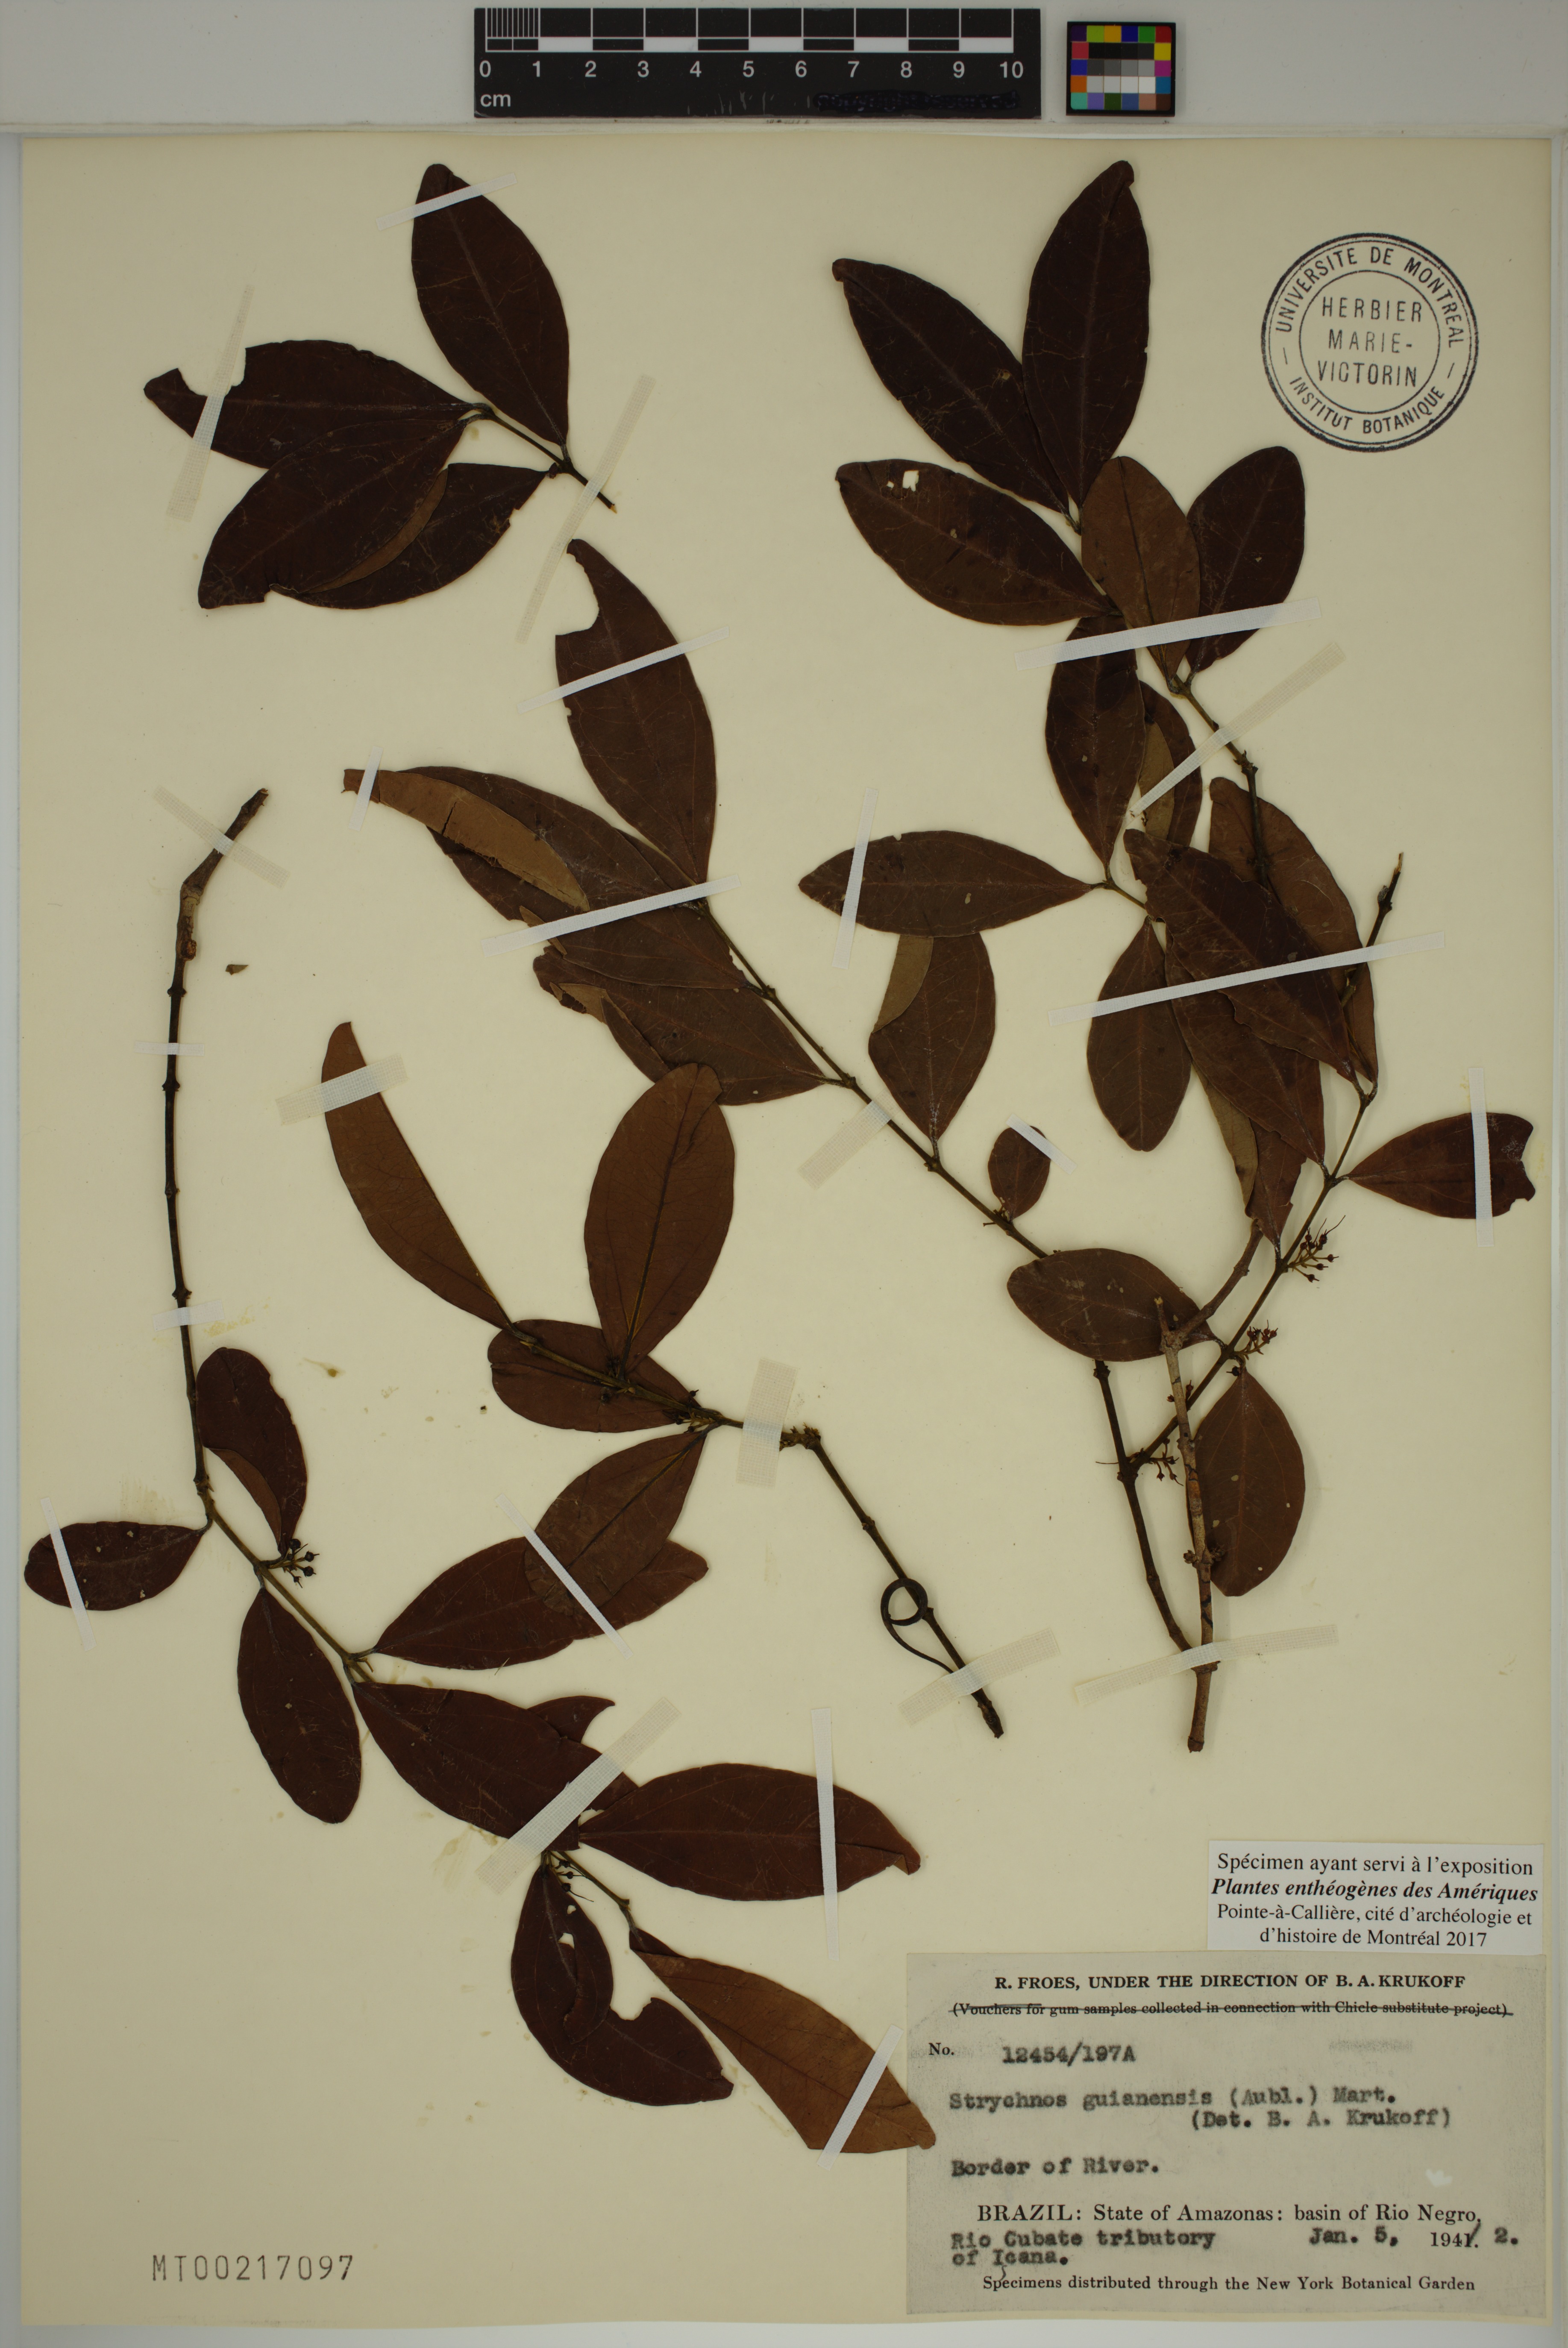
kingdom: Plantae
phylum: Tracheophyta
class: Magnoliopsida
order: Gentianales
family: Loganiaceae
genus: Strychnos
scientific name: Strychnos guianensis
